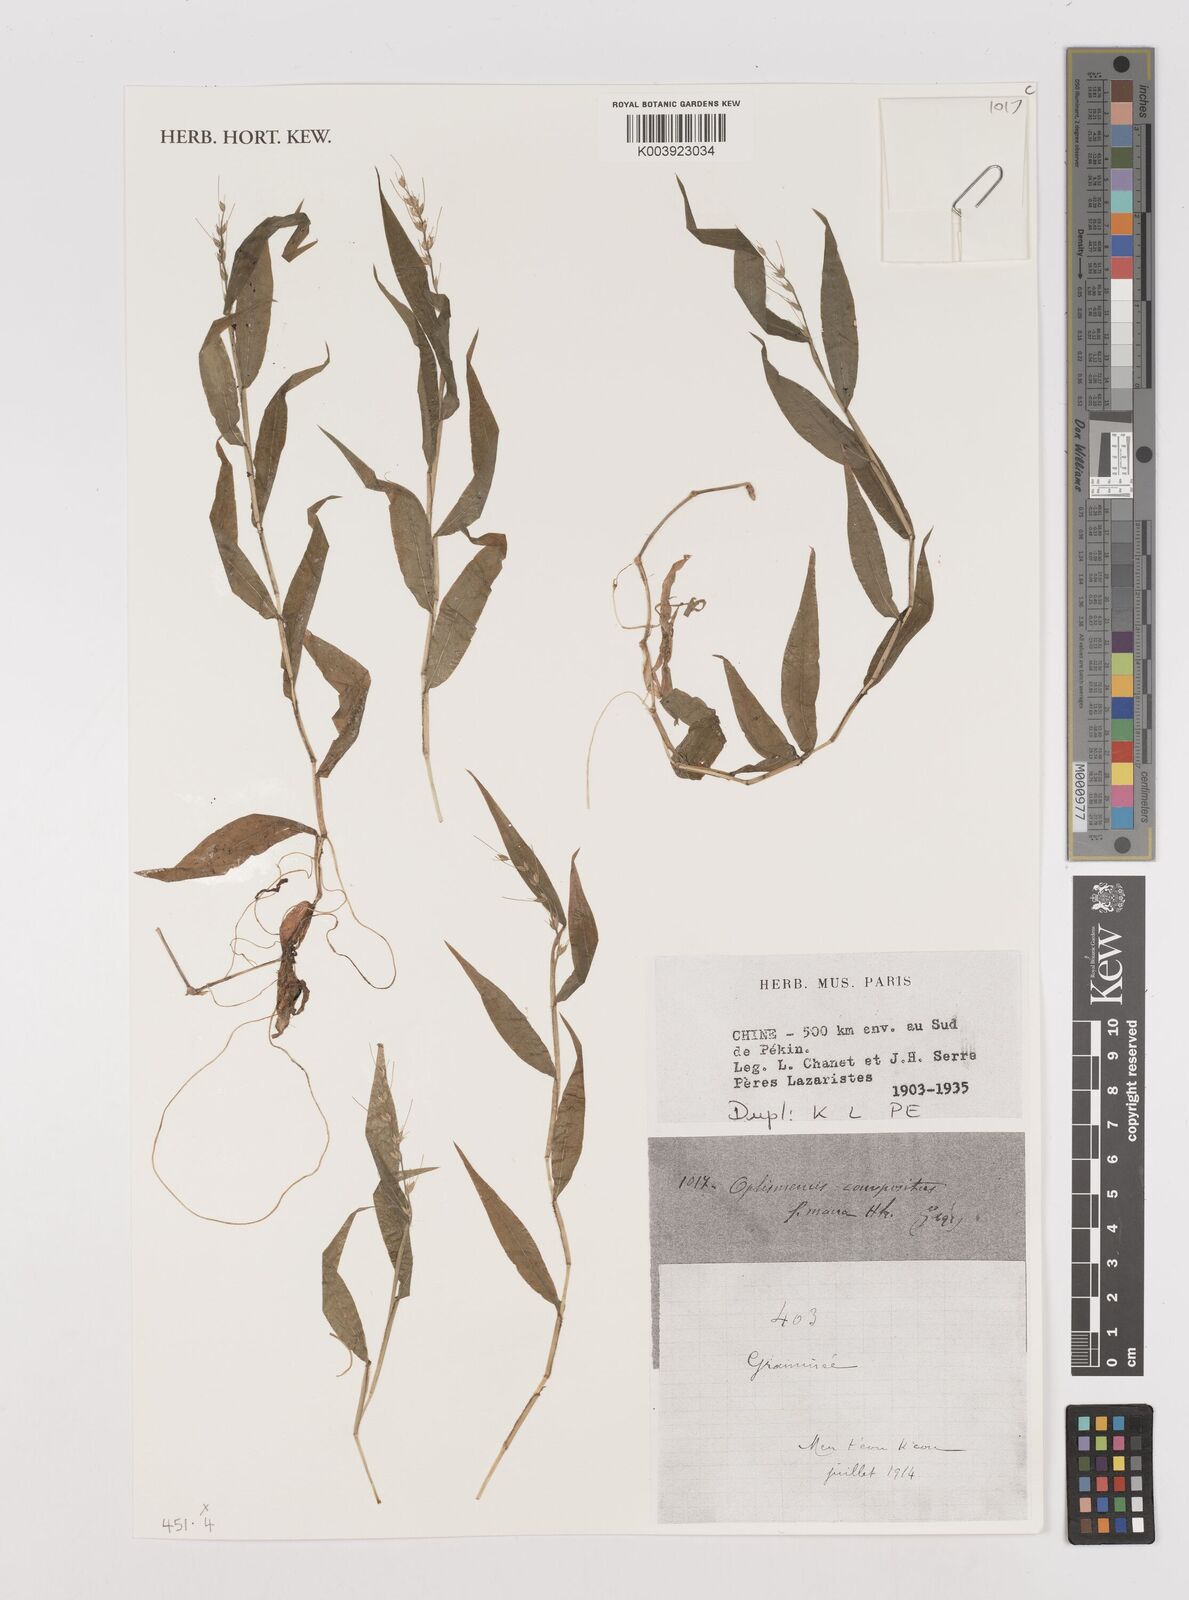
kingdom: Plantae
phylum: Tracheophyta
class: Liliopsida
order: Poales
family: Poaceae
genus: Oplismenus
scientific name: Oplismenus compositus
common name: Running mountain grass
